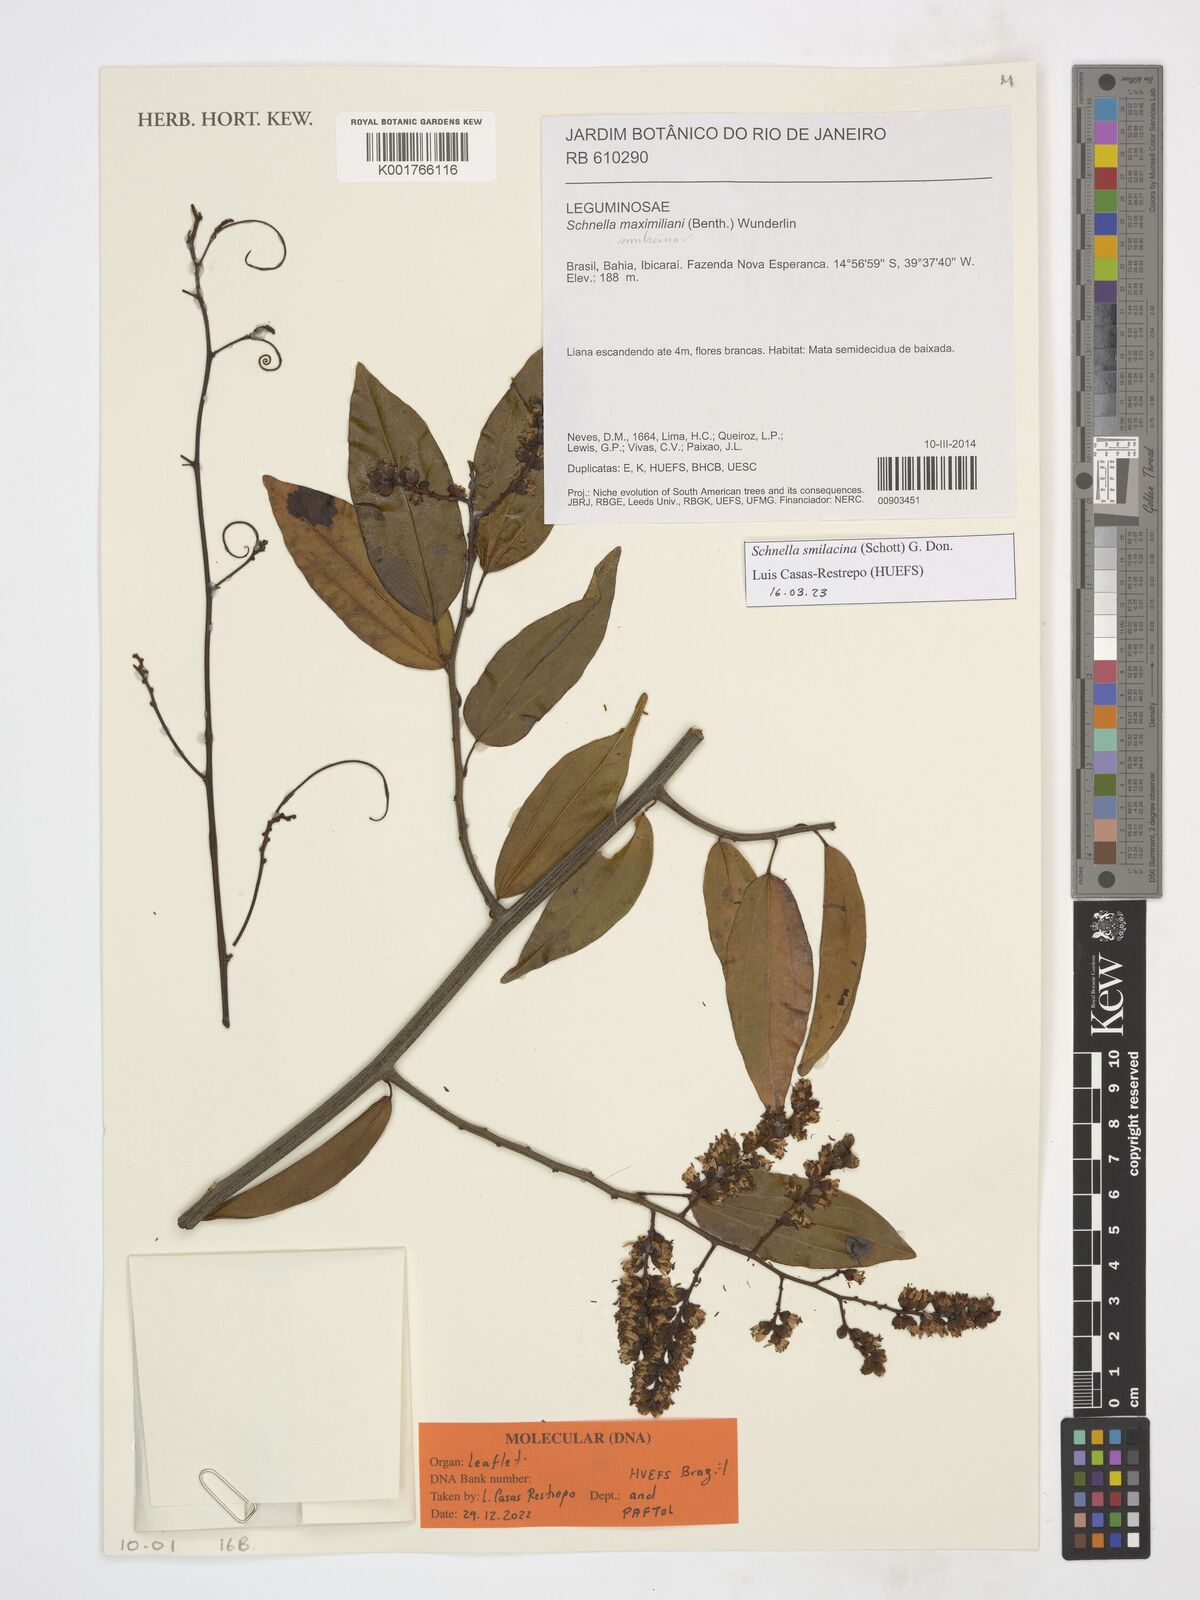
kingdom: Plantae
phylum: Tracheophyta
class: Magnoliopsida
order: Fabales
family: Fabaceae
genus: Schnella
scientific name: Schnella smilacina
